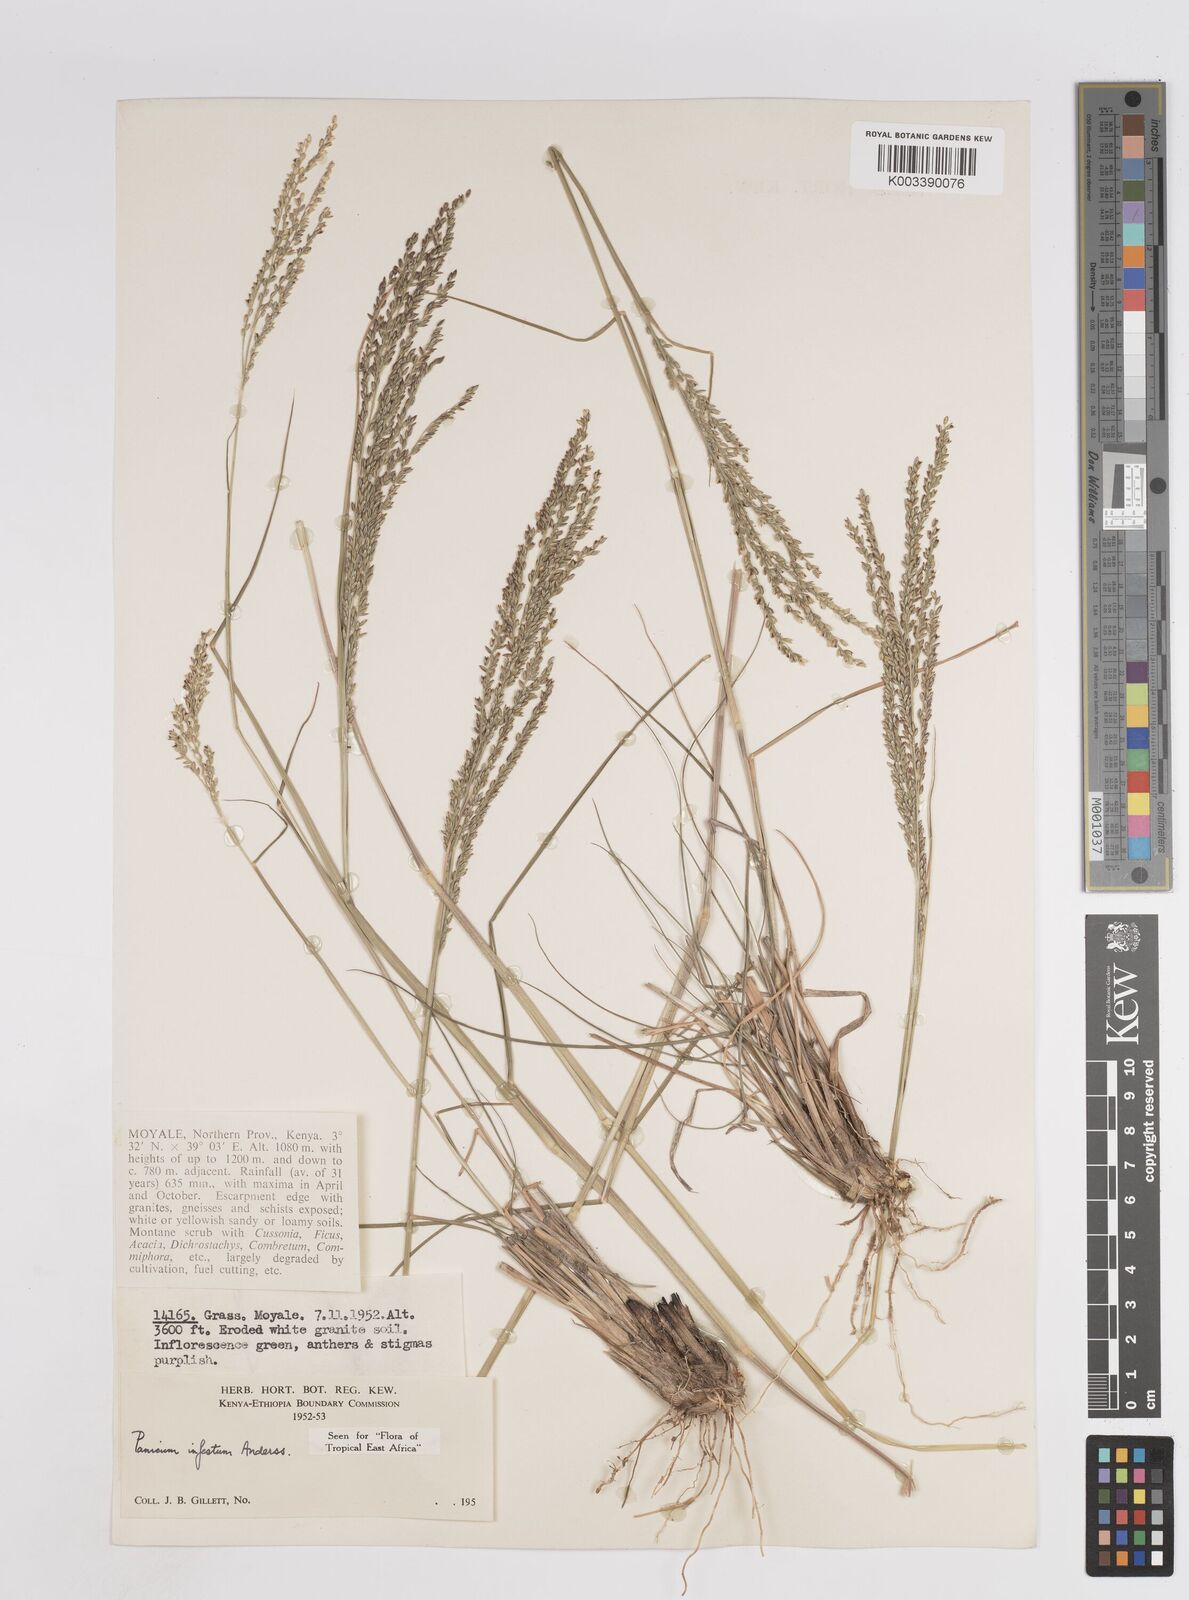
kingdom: Plantae
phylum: Tracheophyta
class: Liliopsida
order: Poales
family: Poaceae
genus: Megathyrsus
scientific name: Megathyrsus infestus
